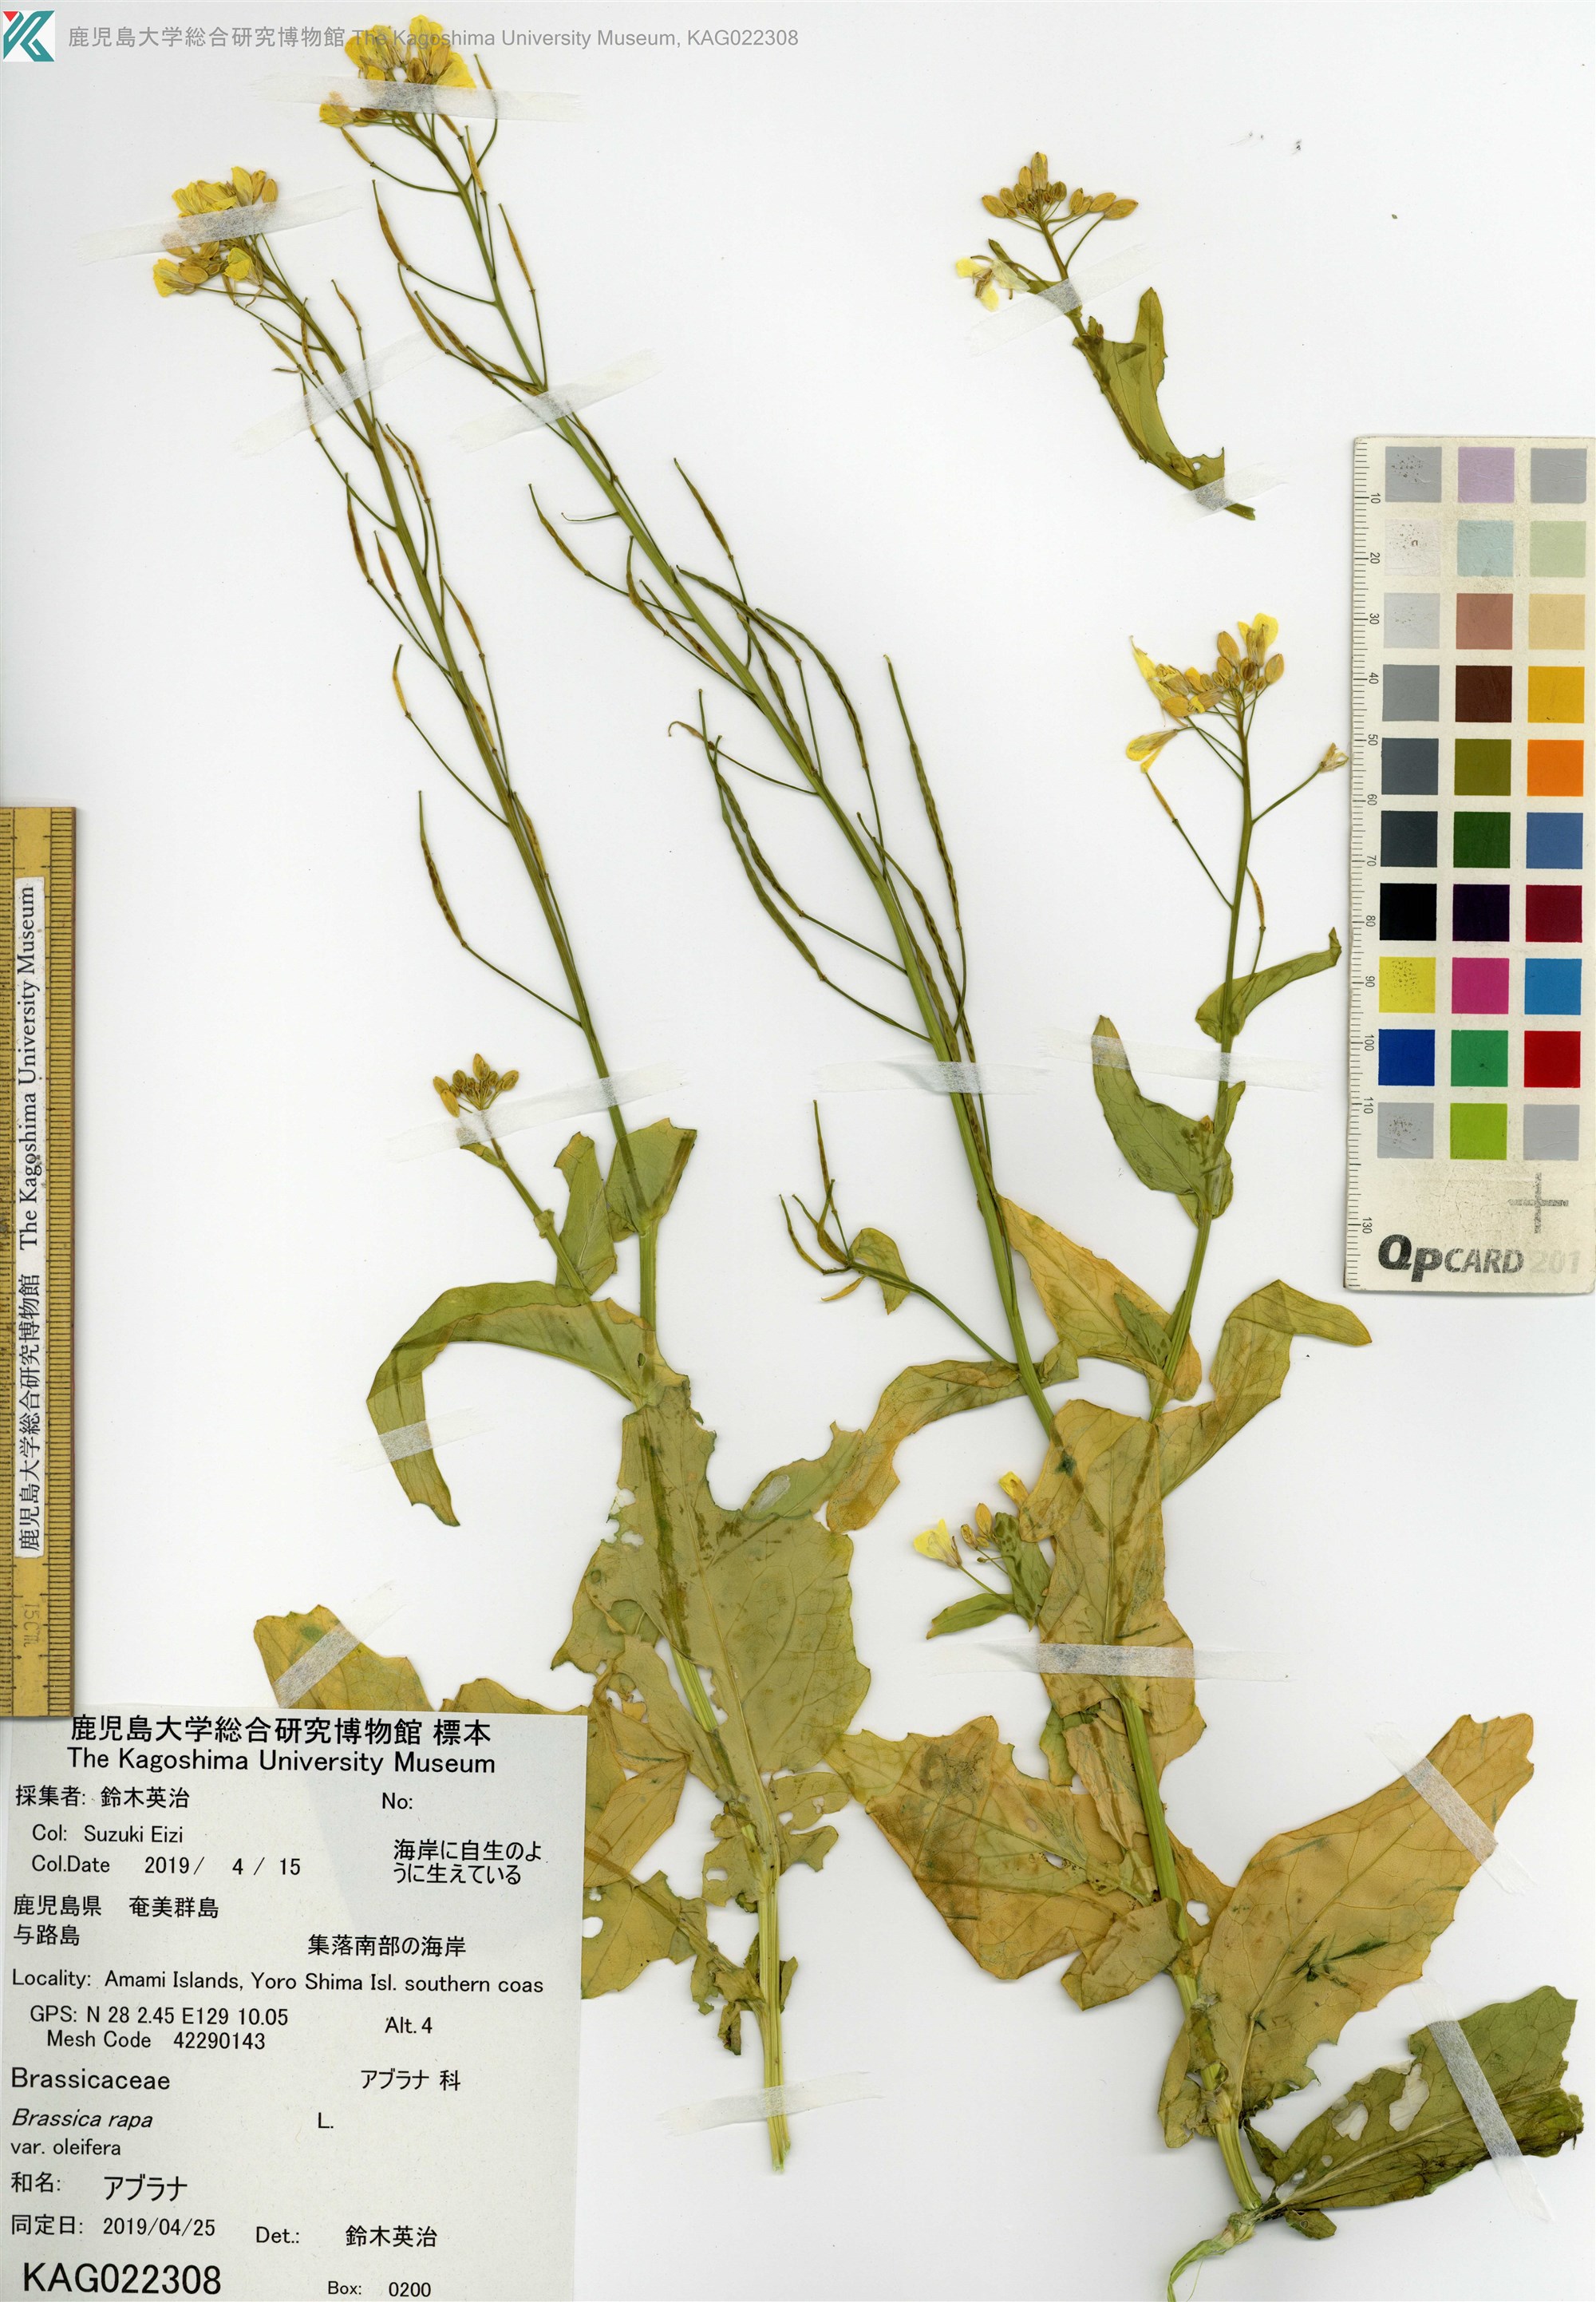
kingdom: Plantae
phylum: Tracheophyta
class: Magnoliopsida
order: Brassicales
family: Brassicaceae
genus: Brassica
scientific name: Brassica rapa
